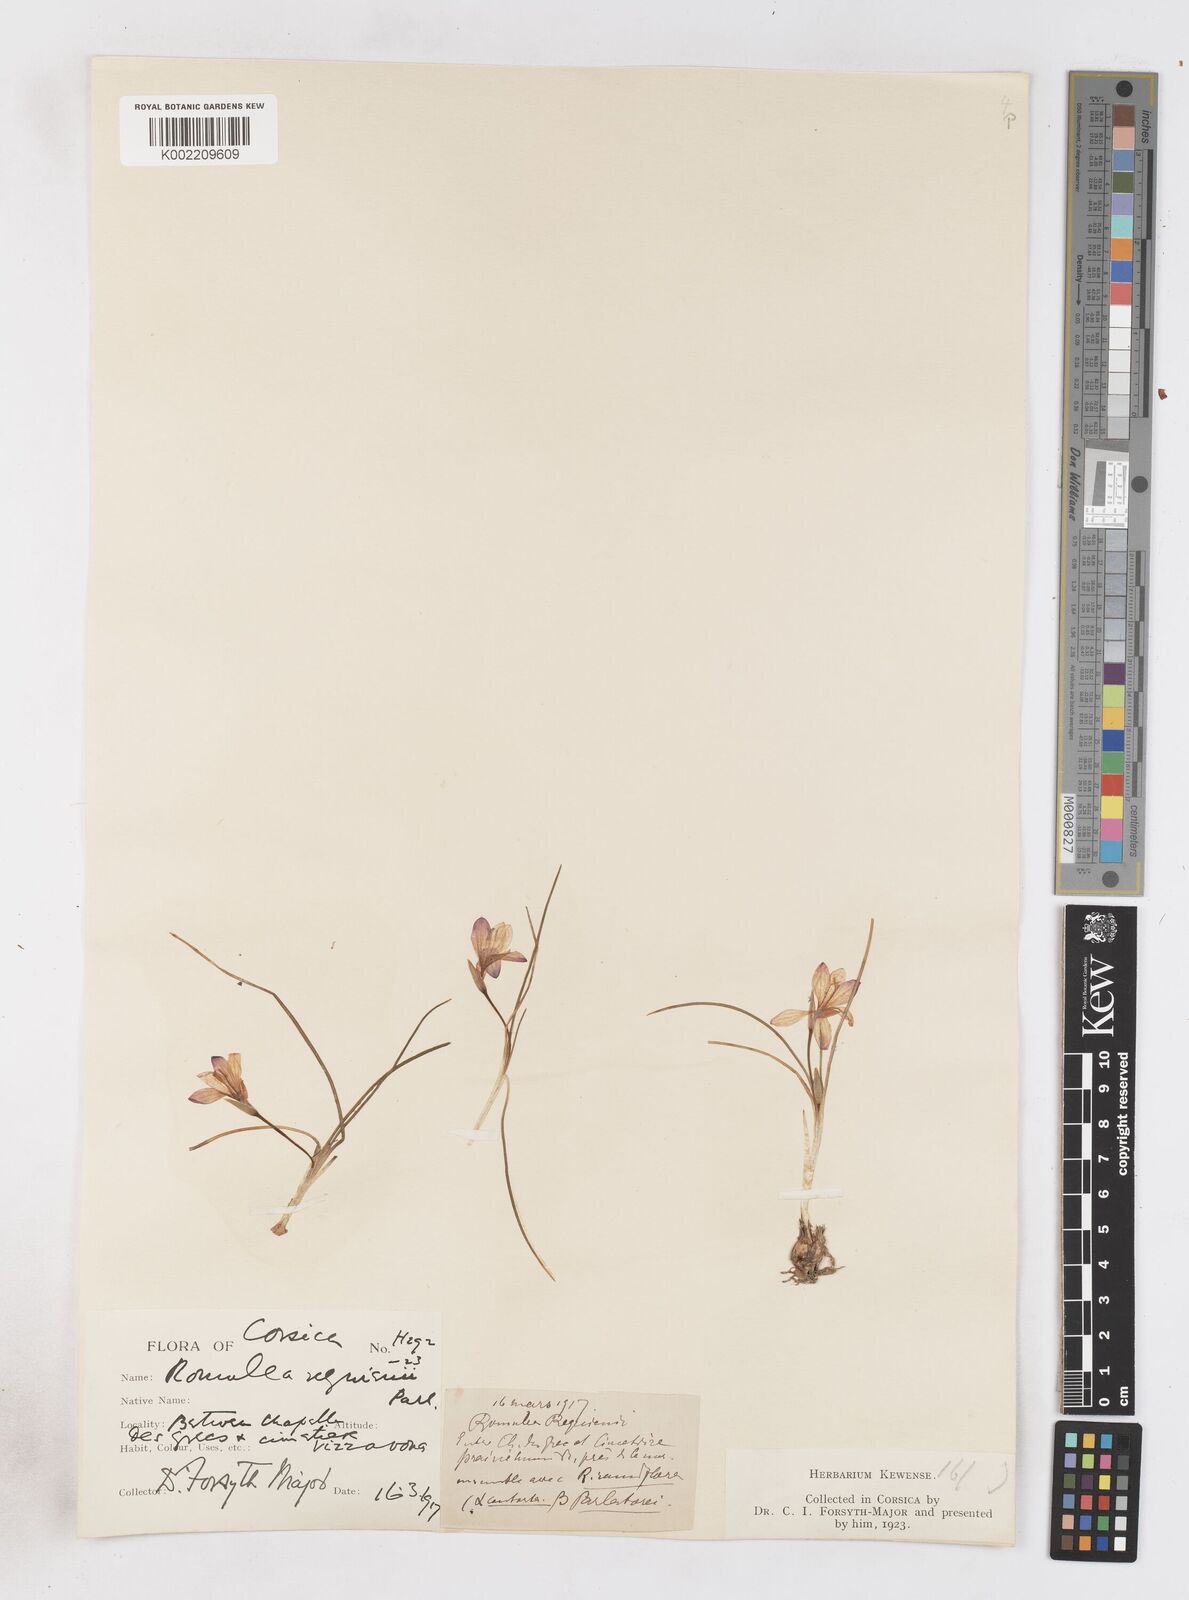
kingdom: Plantae
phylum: Tracheophyta
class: Liliopsida
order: Asparagales
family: Iridaceae
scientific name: Iridaceae
